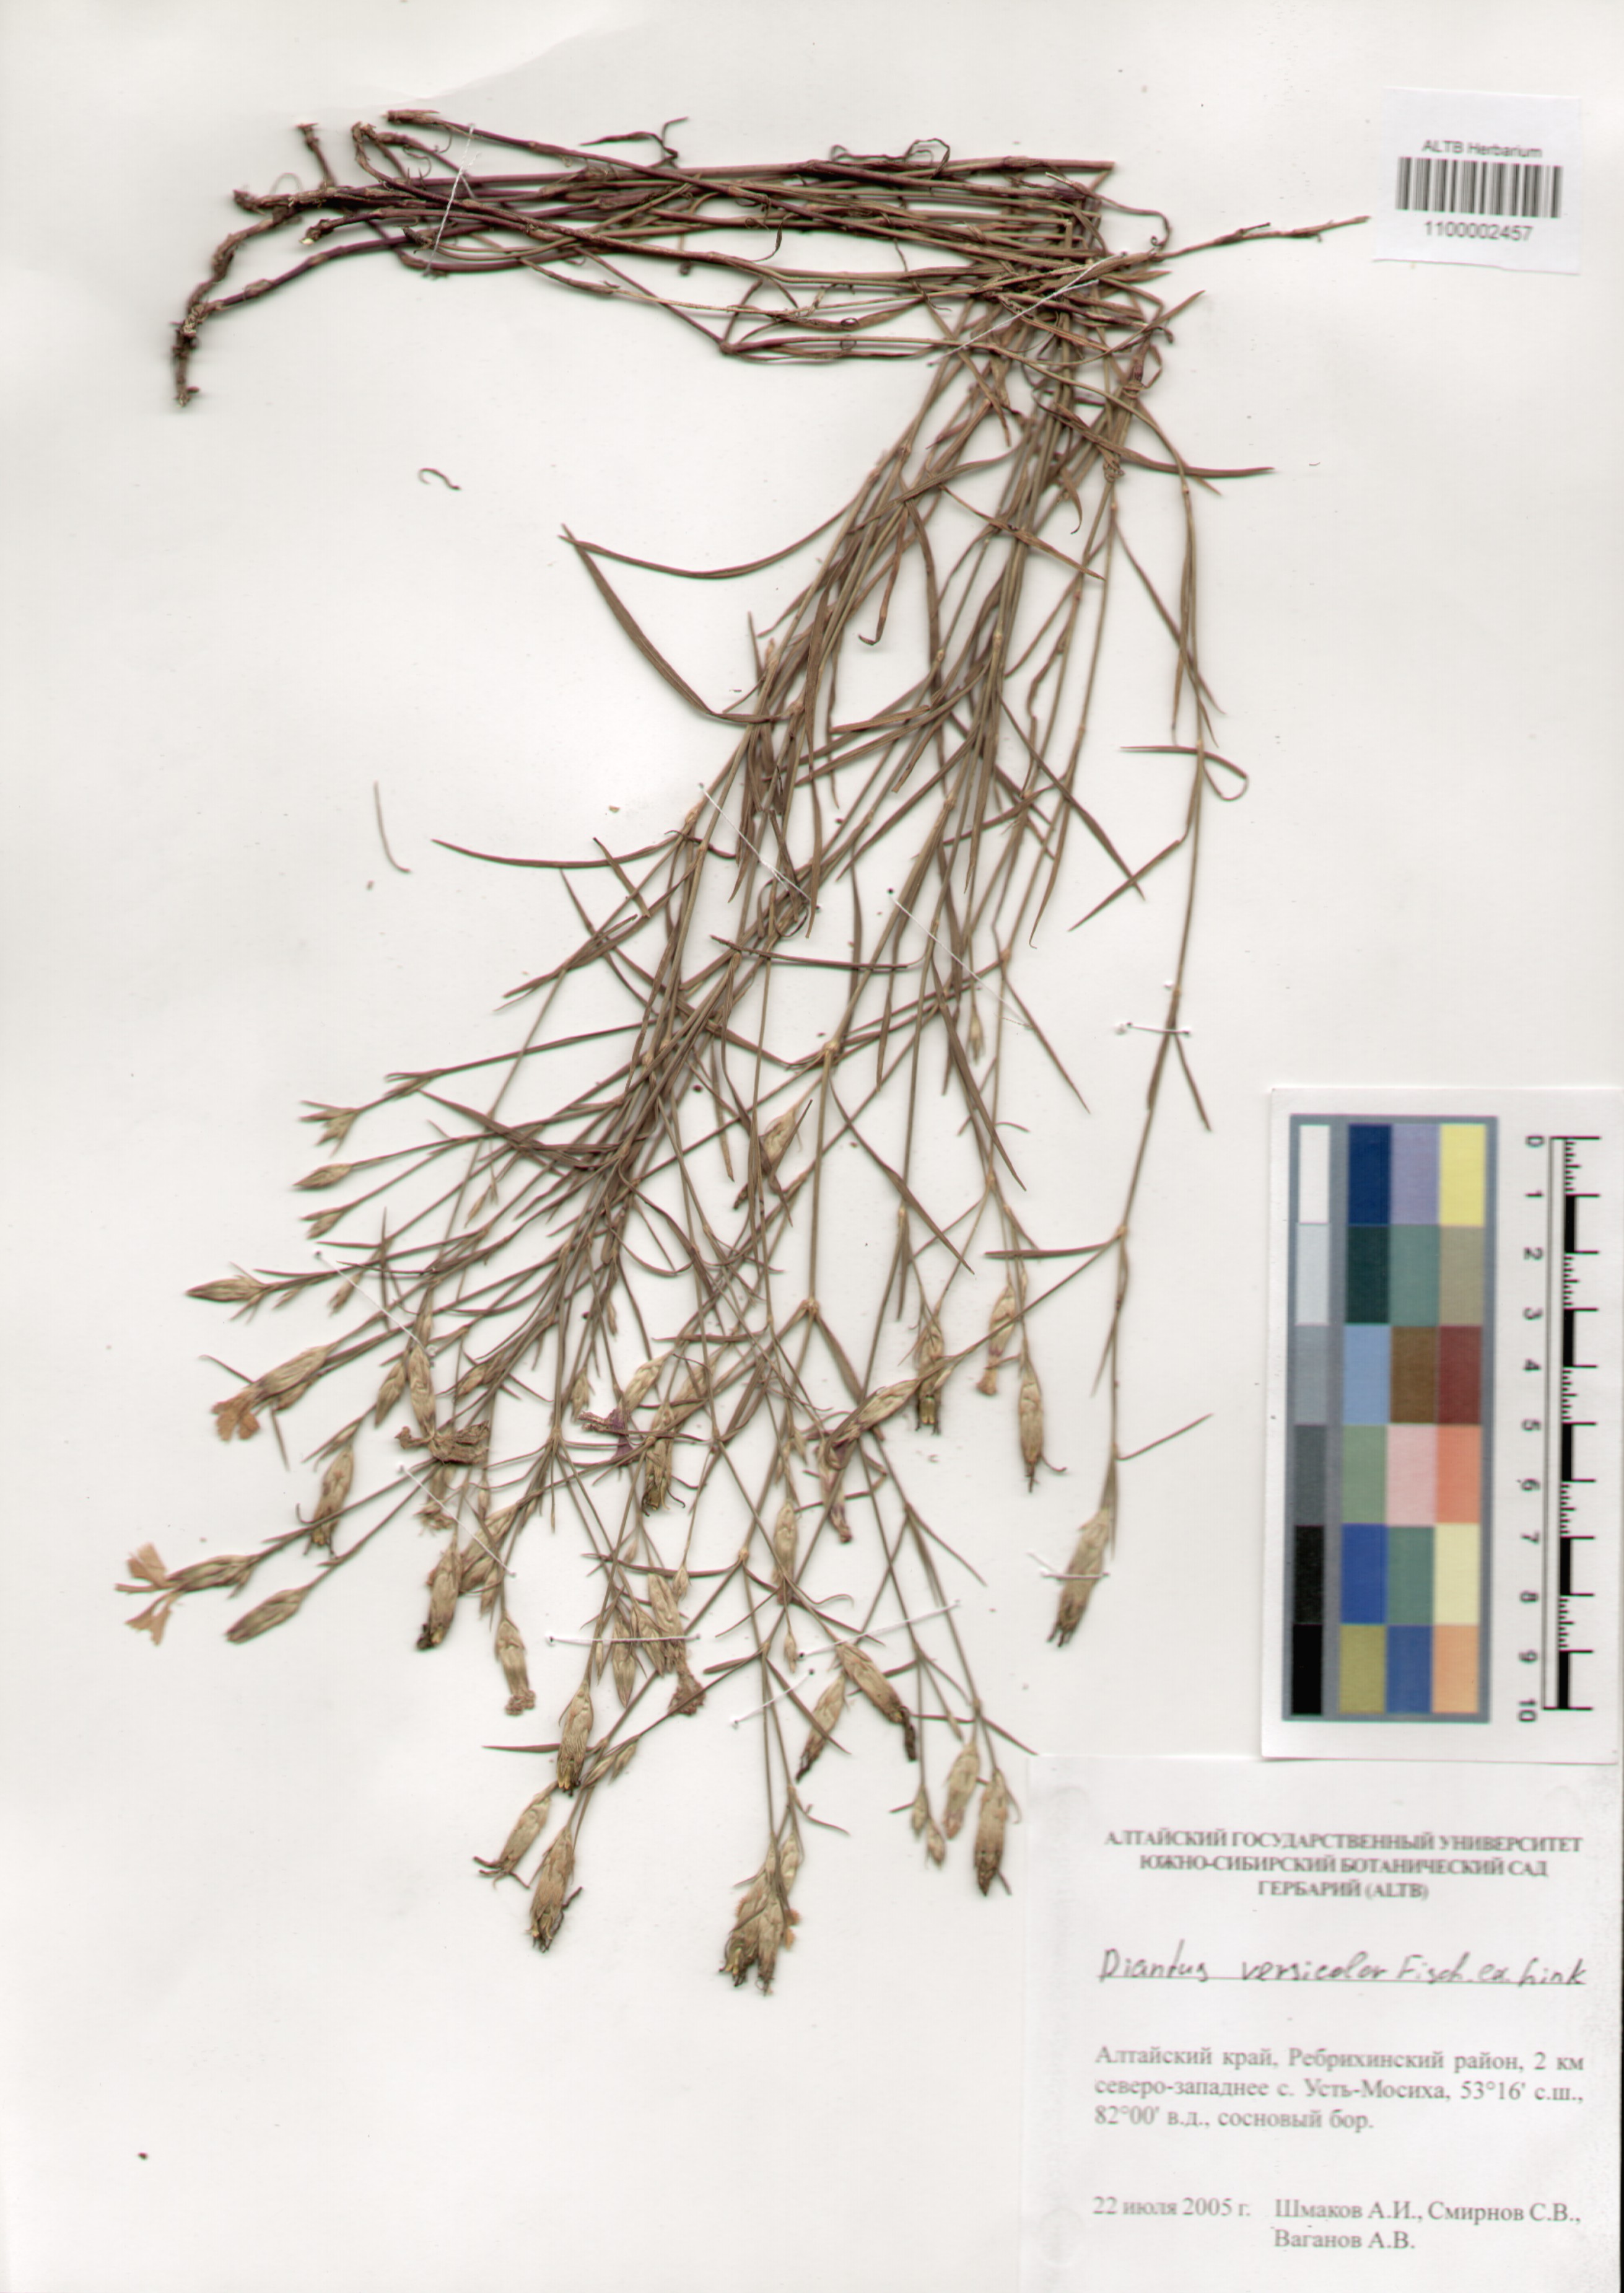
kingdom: Plantae
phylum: Tracheophyta
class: Magnoliopsida
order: Caryophyllales
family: Caryophyllaceae
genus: Dianthus
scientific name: Dianthus chinensis
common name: Rainbow pink
